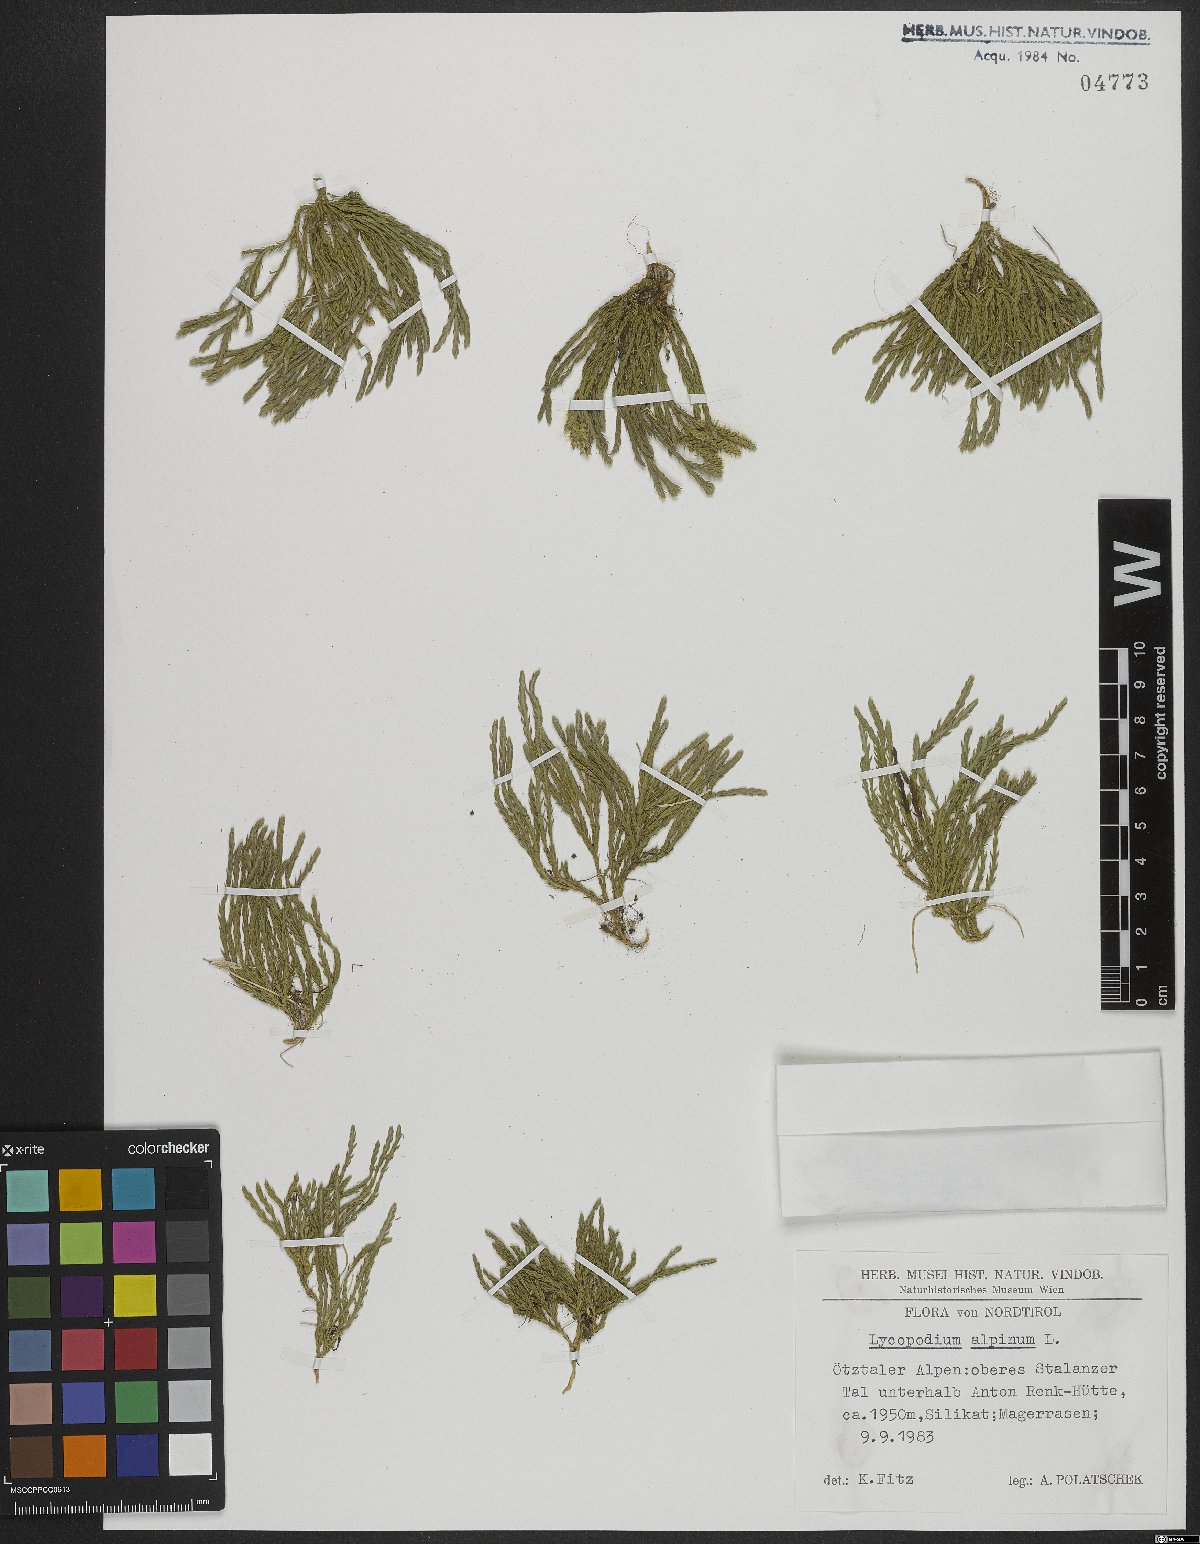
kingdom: Plantae
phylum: Tracheophyta
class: Lycopodiopsida
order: Lycopodiales
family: Lycopodiaceae
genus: Diphasiastrum
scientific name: Diphasiastrum alpinum
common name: Alpine clubmoss
